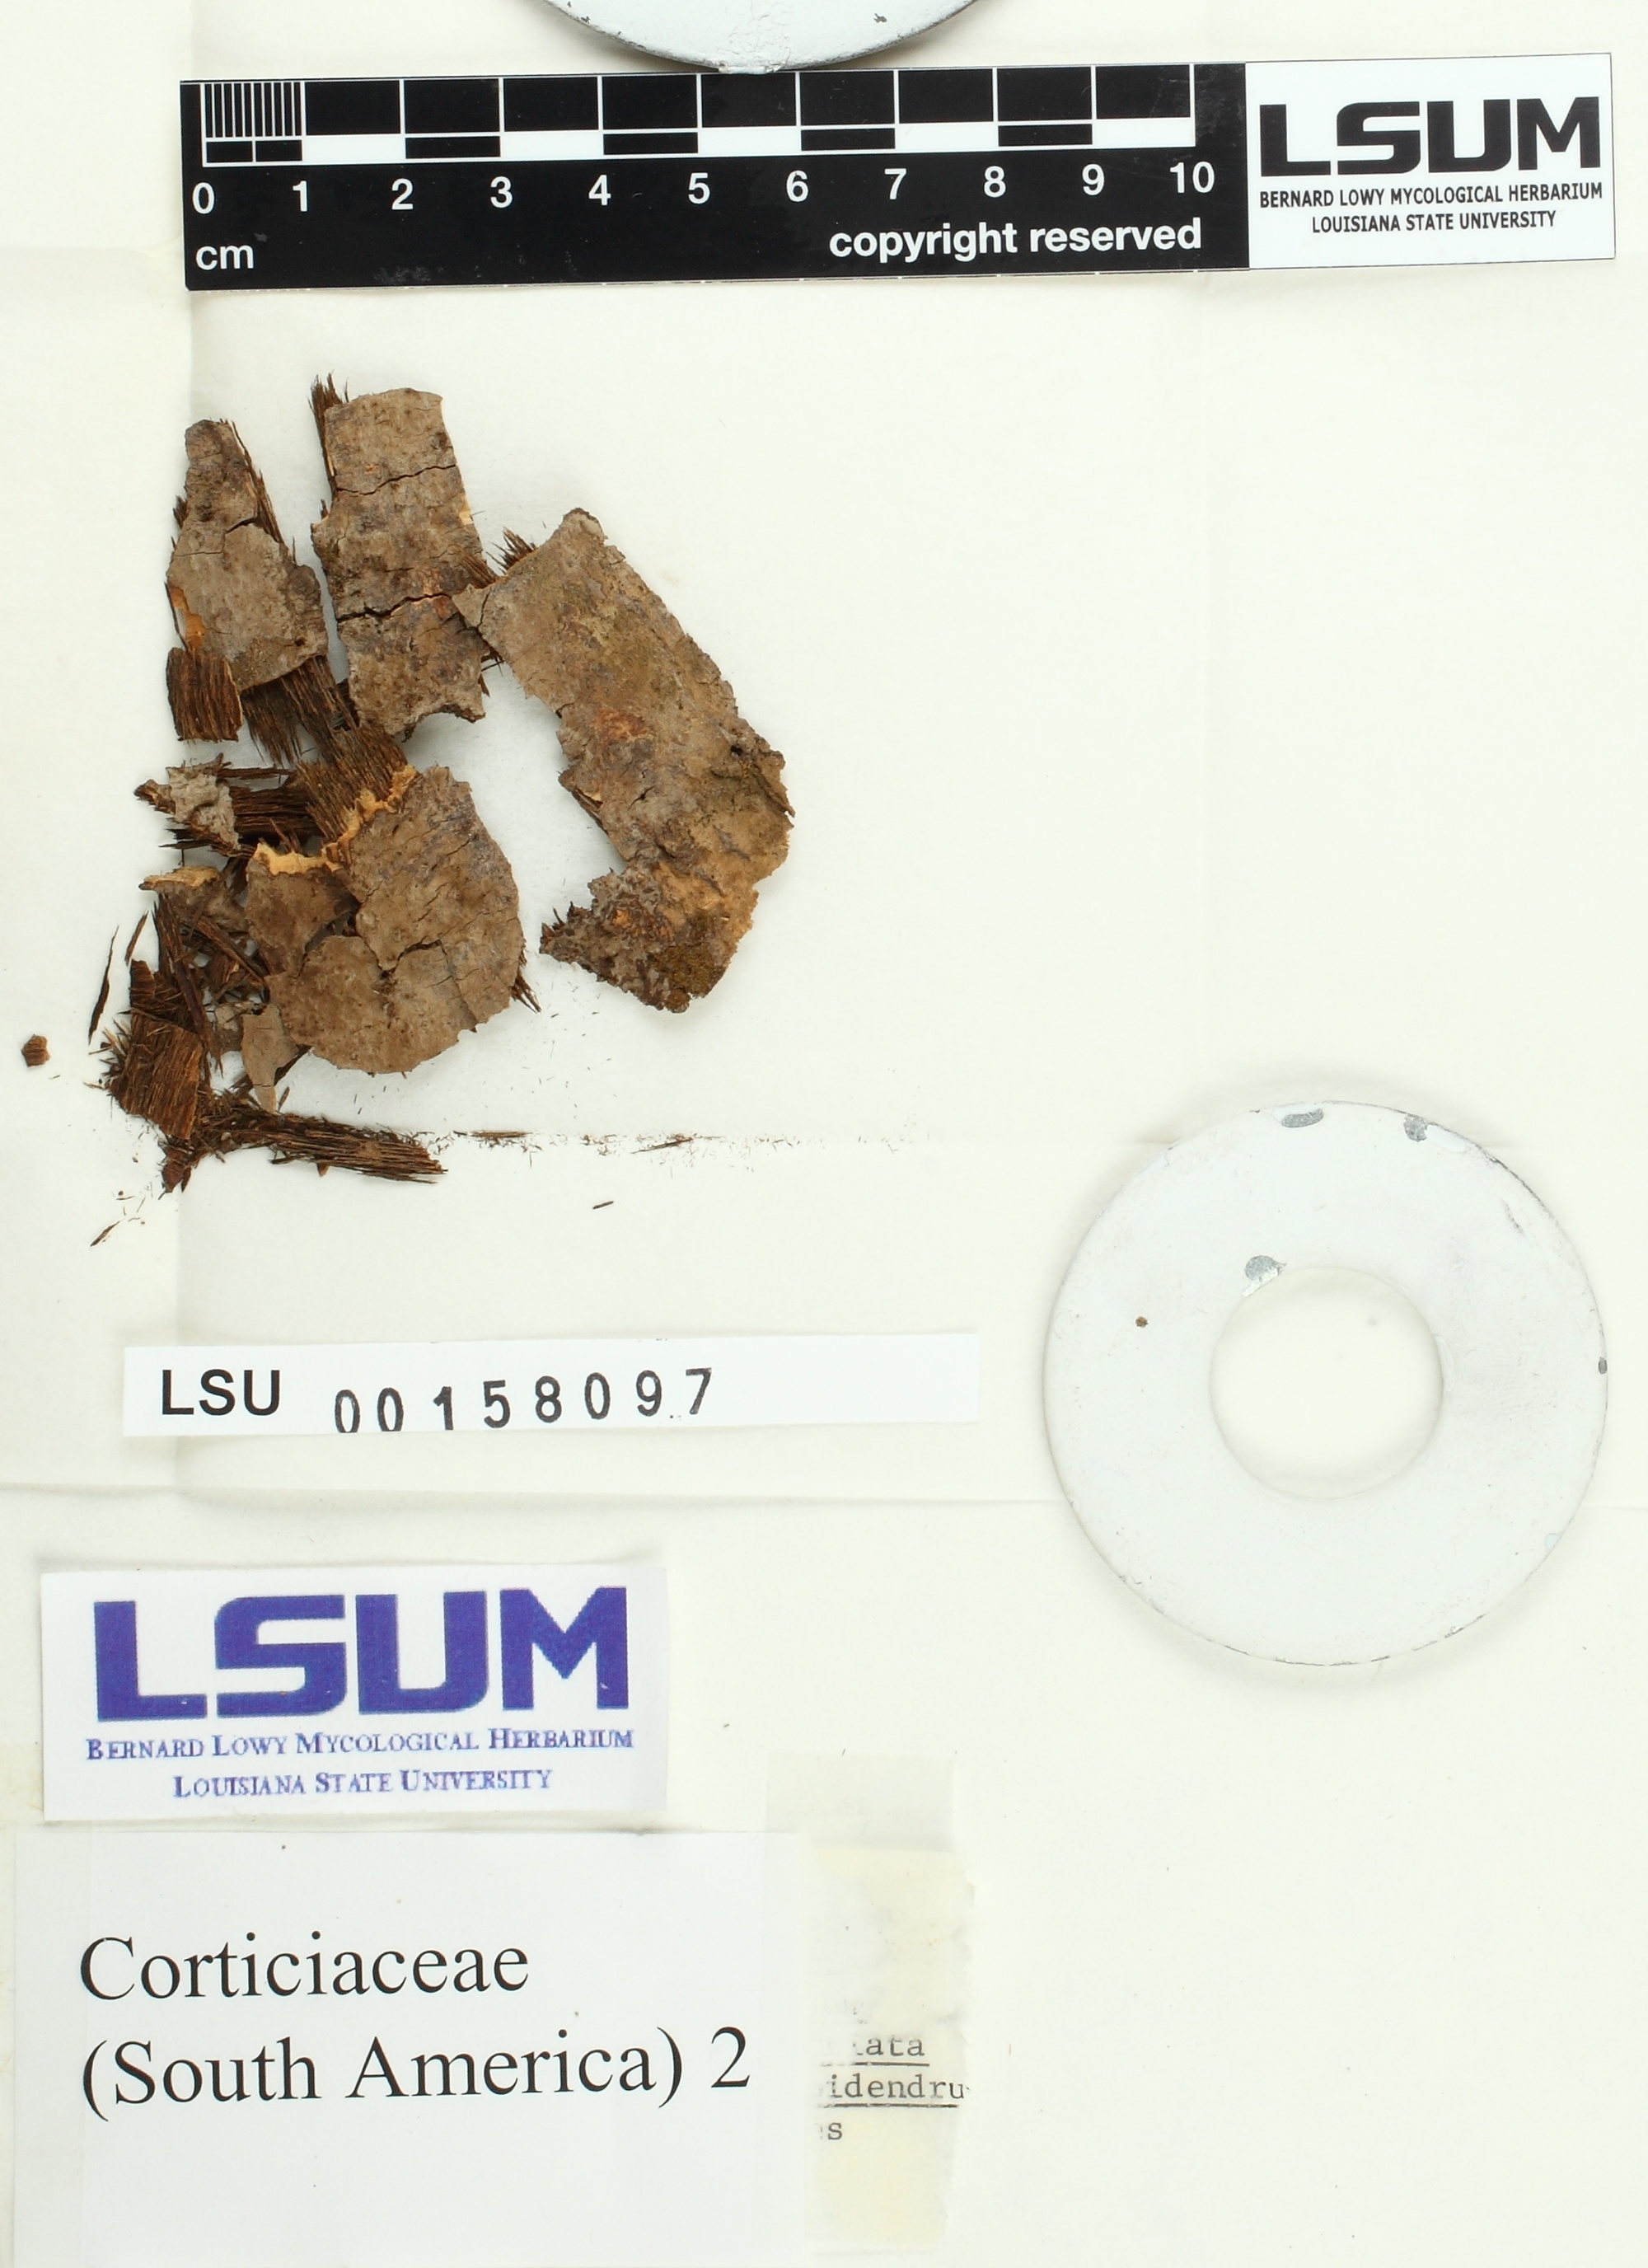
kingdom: Fungi
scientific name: Fungi
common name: Fungi
